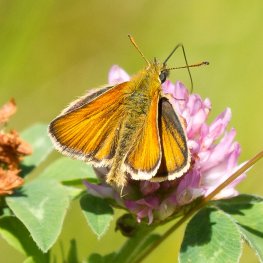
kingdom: Animalia
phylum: Arthropoda
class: Insecta
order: Lepidoptera
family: Hesperiidae
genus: Thymelicus
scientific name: Thymelicus lineola
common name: European Skipper
